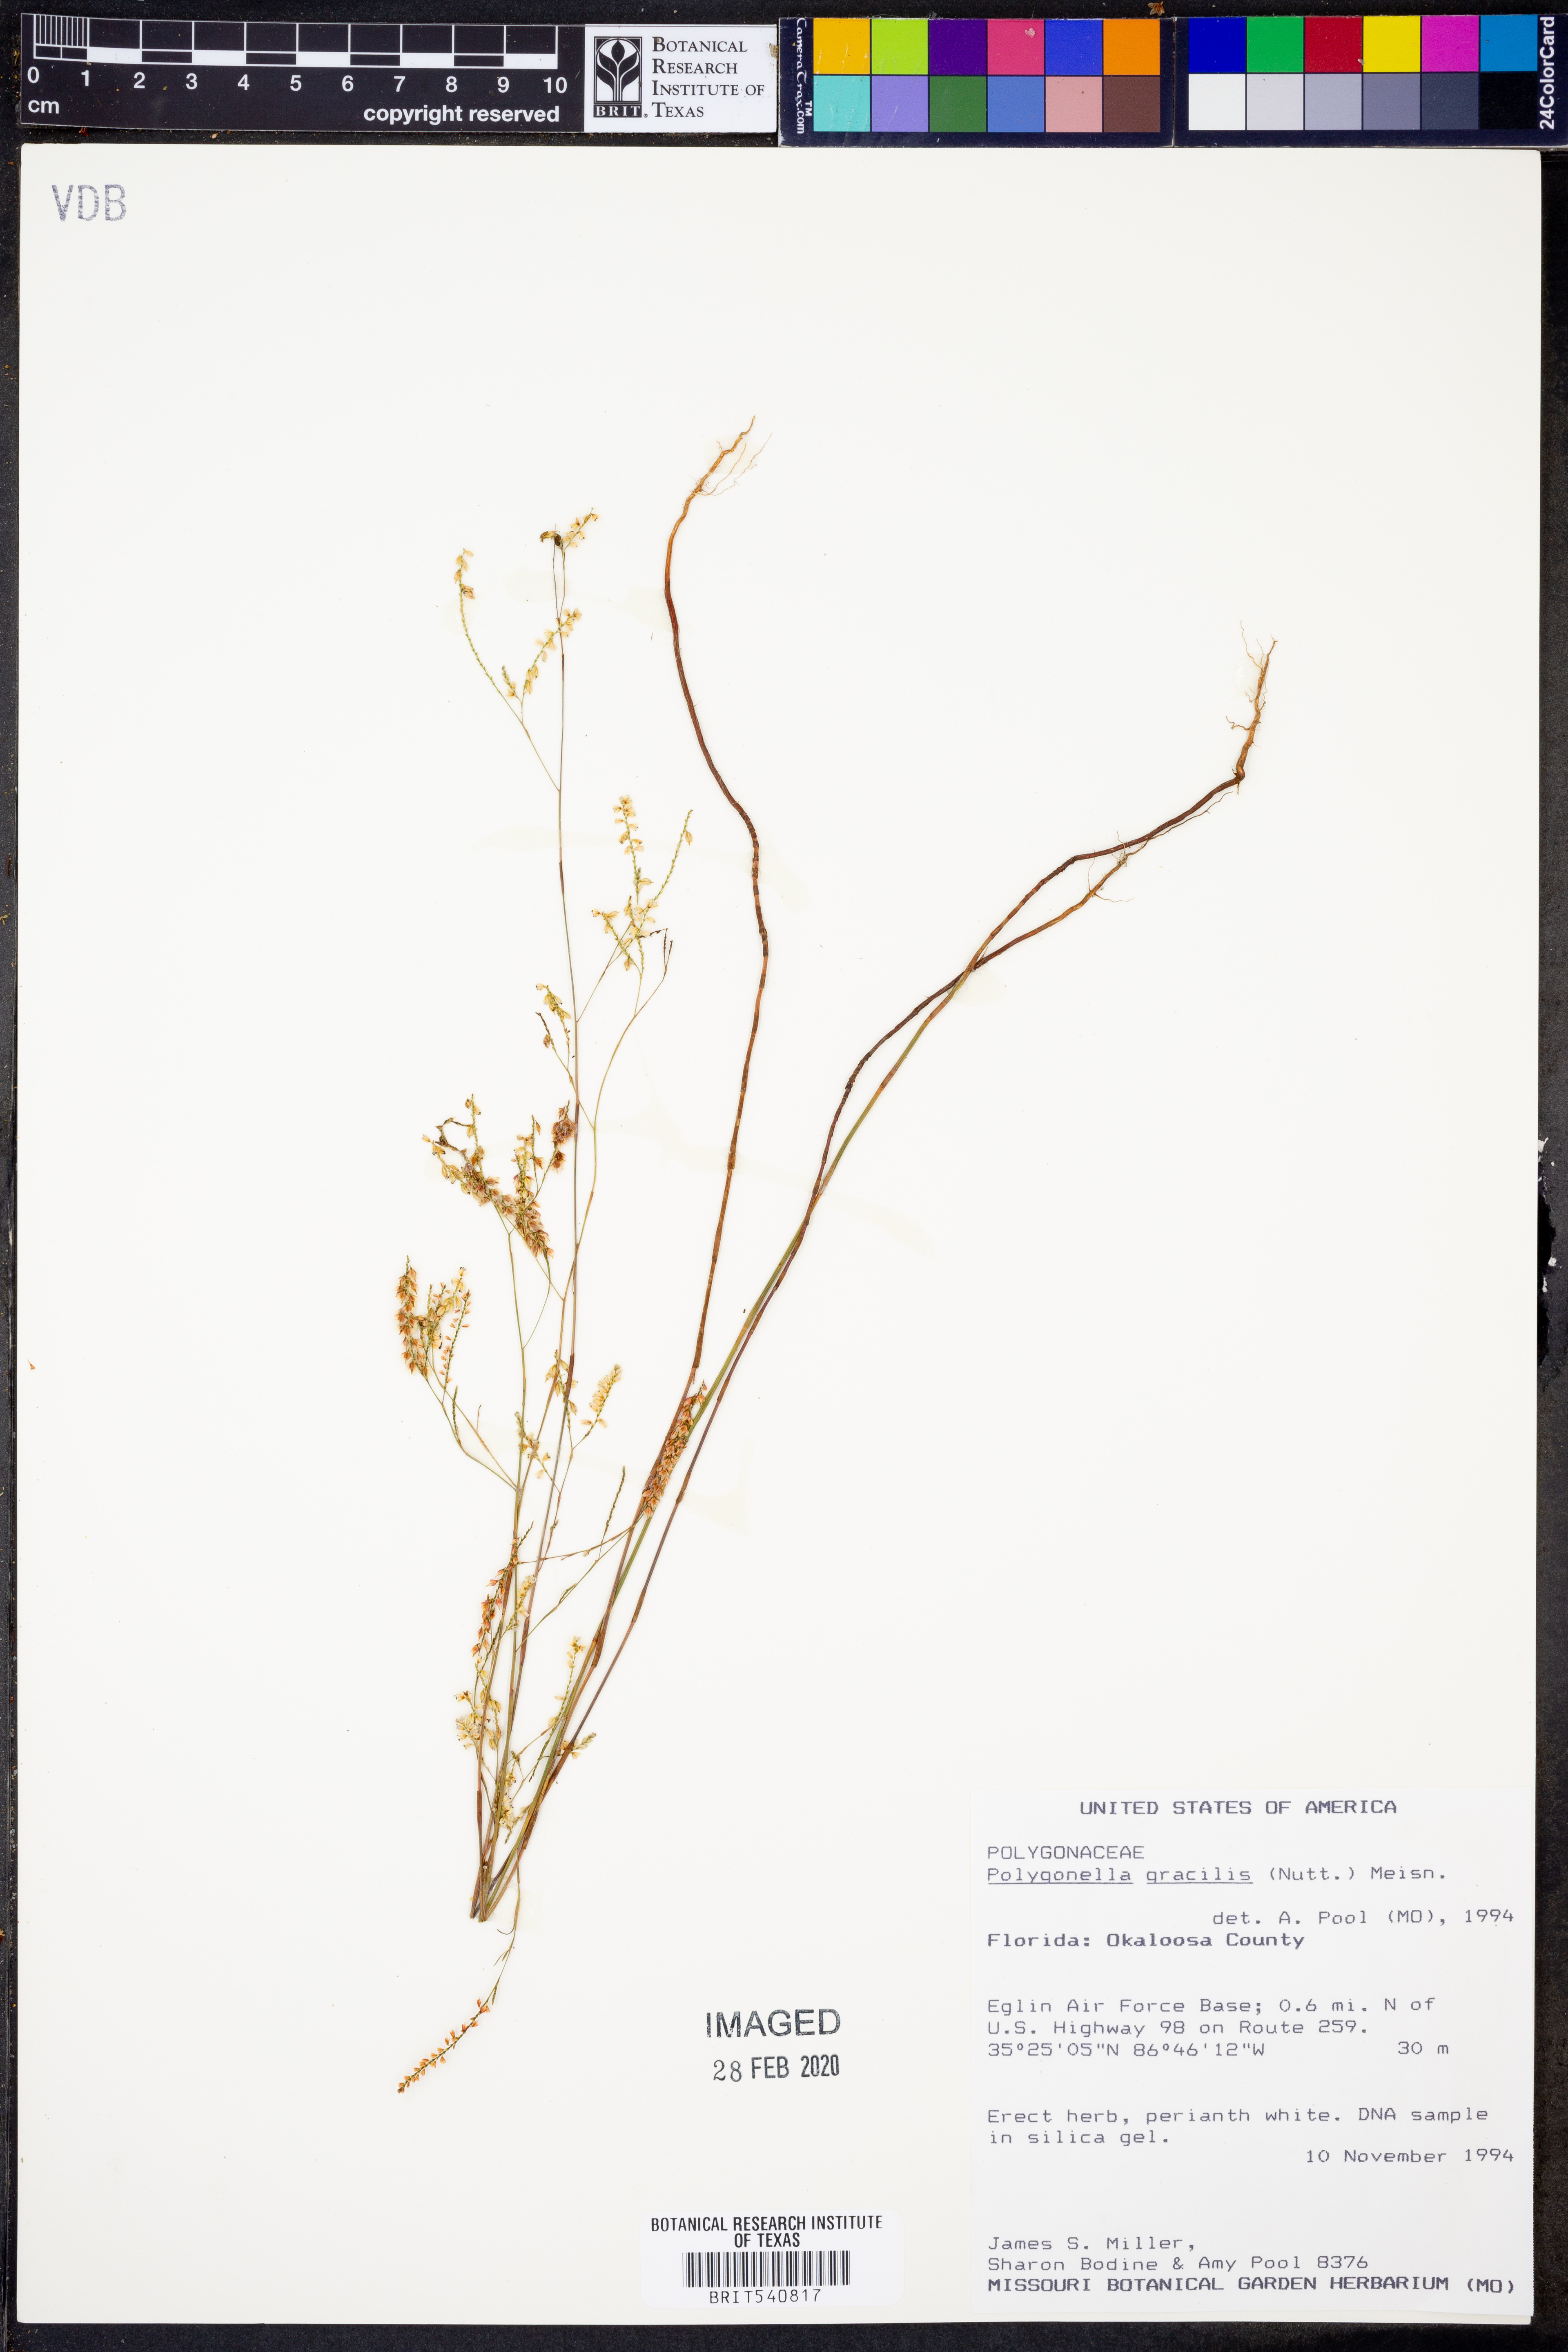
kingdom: Plantae
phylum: Tracheophyta
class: Magnoliopsida
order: Caryophyllales
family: Polygonaceae
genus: Polygonella
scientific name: Polygonella gracilis
